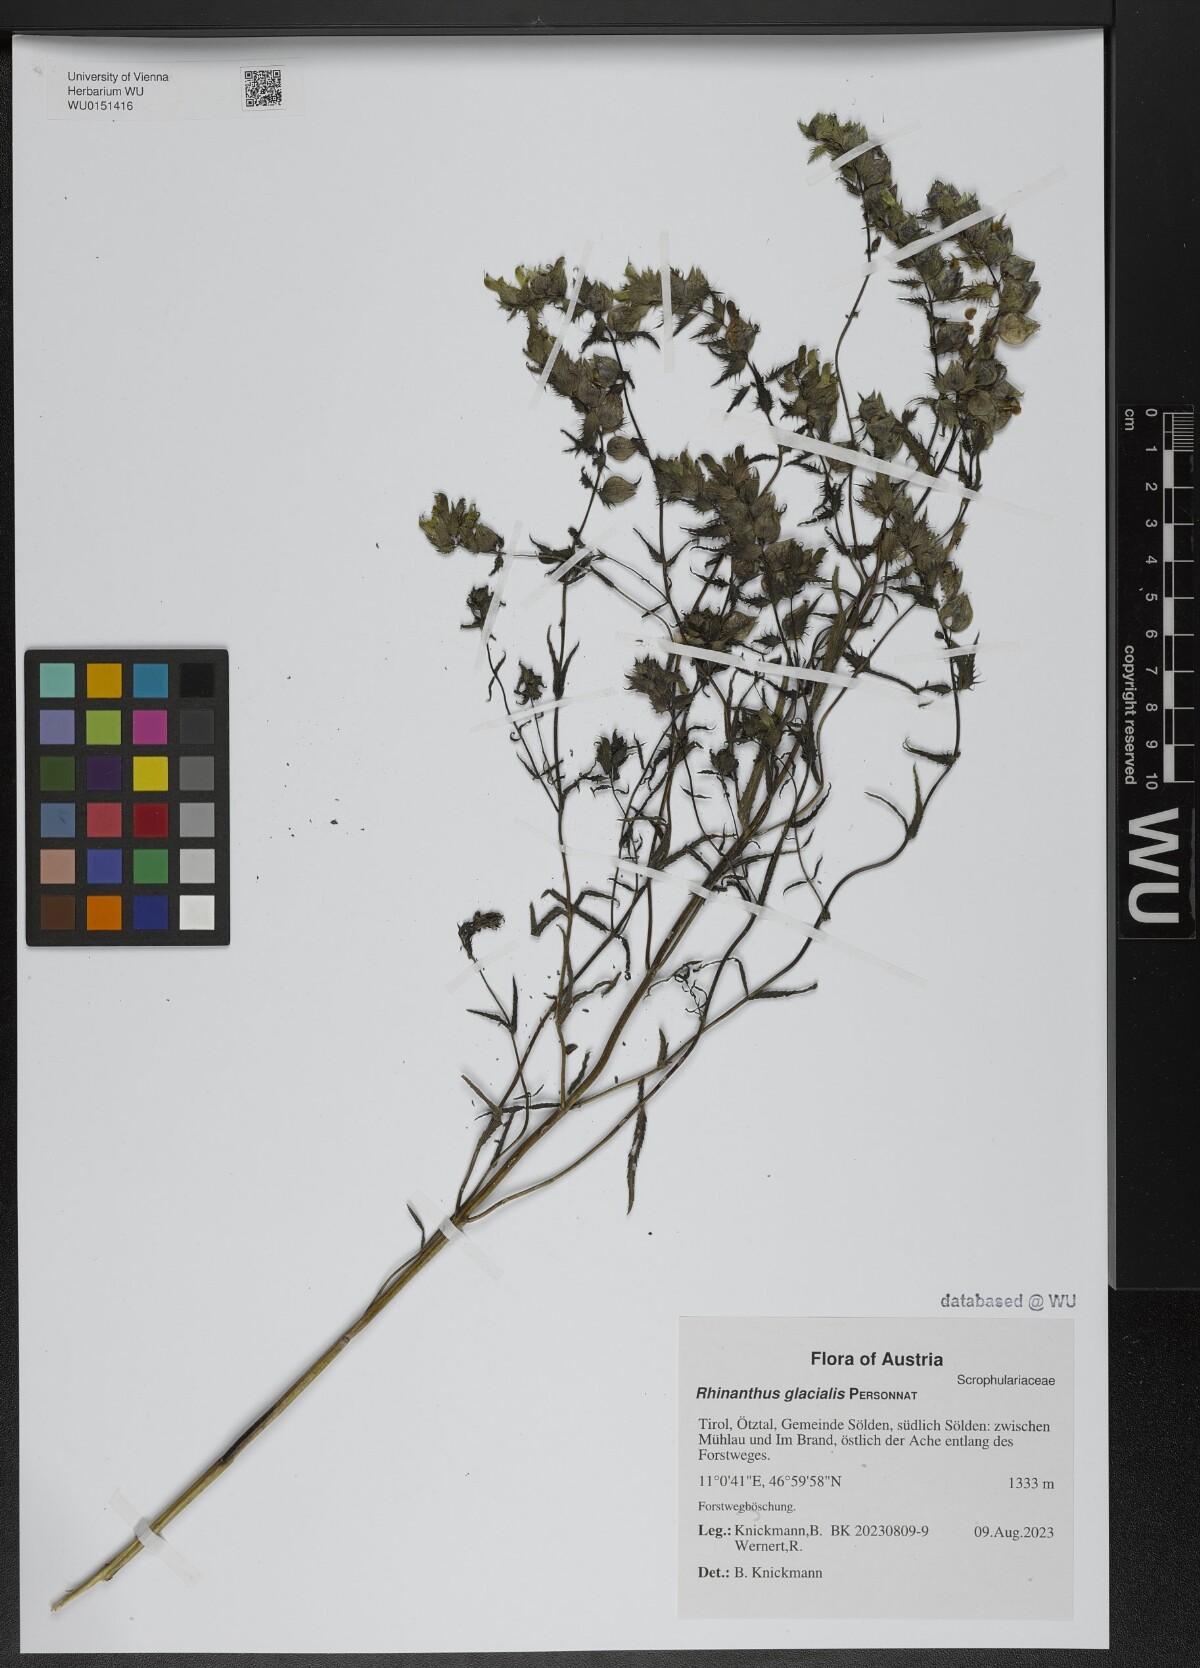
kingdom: Plantae
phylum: Tracheophyta
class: Magnoliopsida
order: Lamiales
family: Orobanchaceae
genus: Rhinanthus
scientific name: Rhinanthus glacialis
